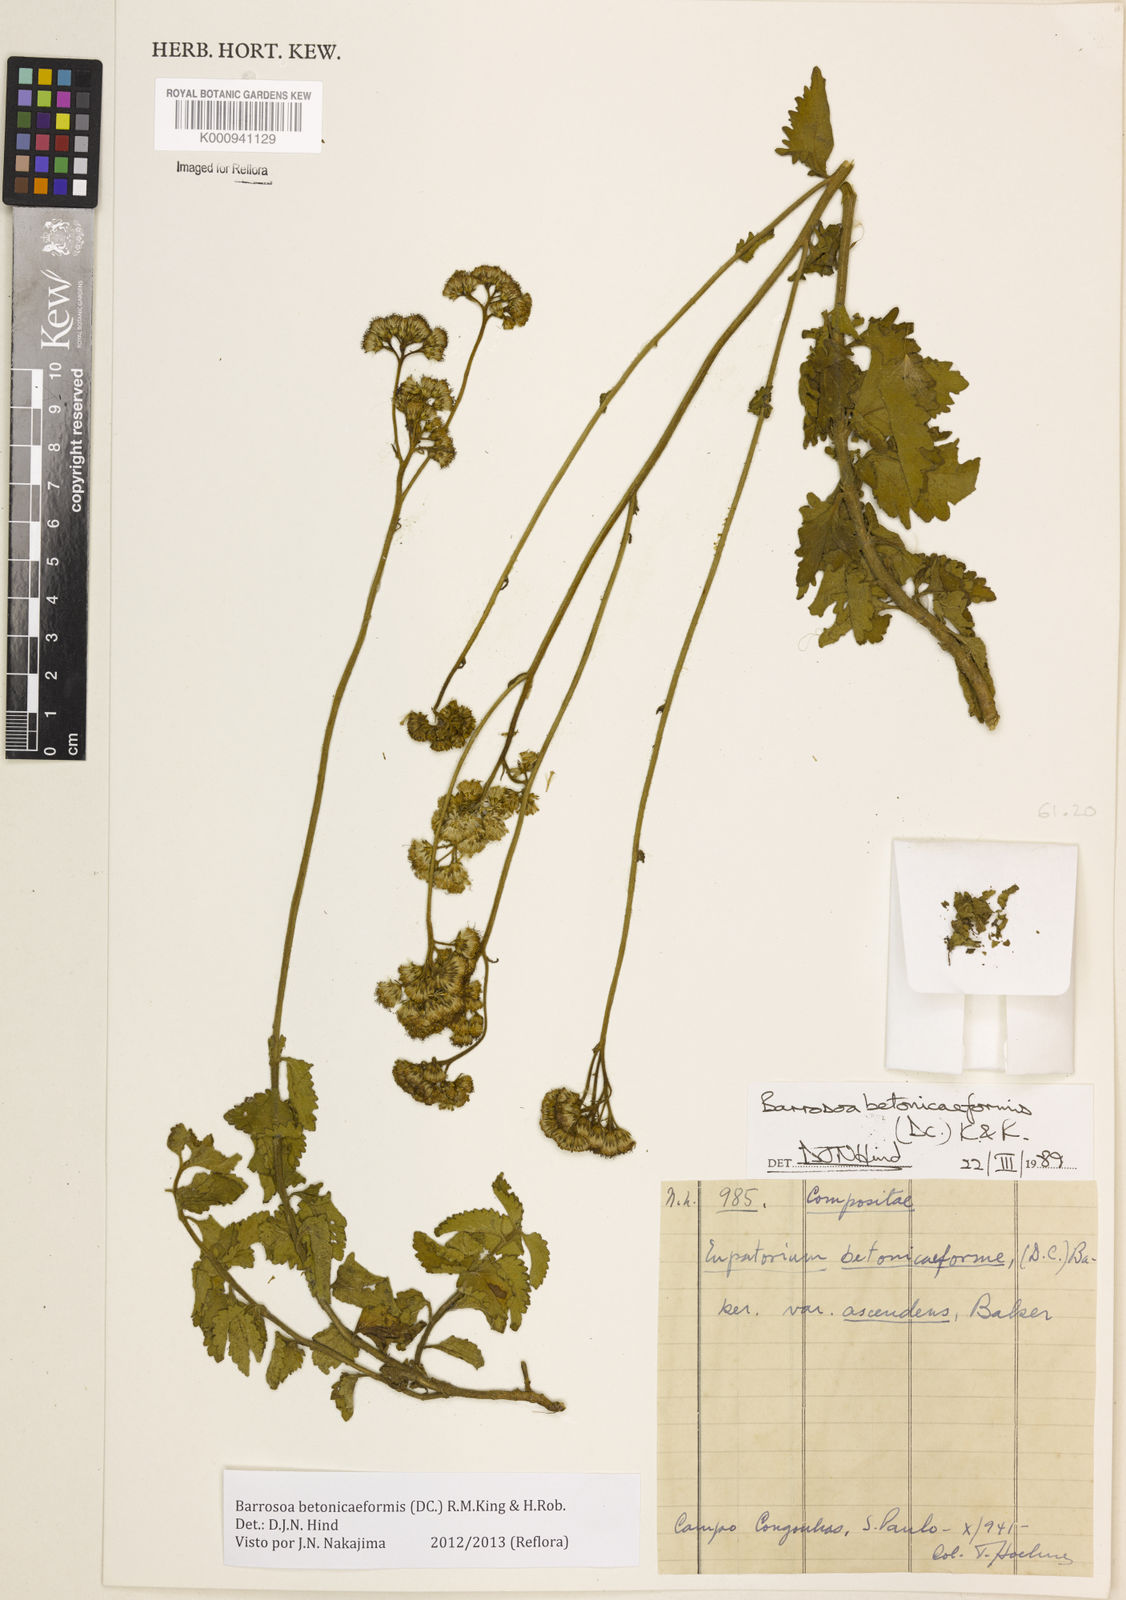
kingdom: Plantae
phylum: Tracheophyta
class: Magnoliopsida
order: Asterales
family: Asteraceae
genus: Barrosoa
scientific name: Barrosoa betoniciformis
